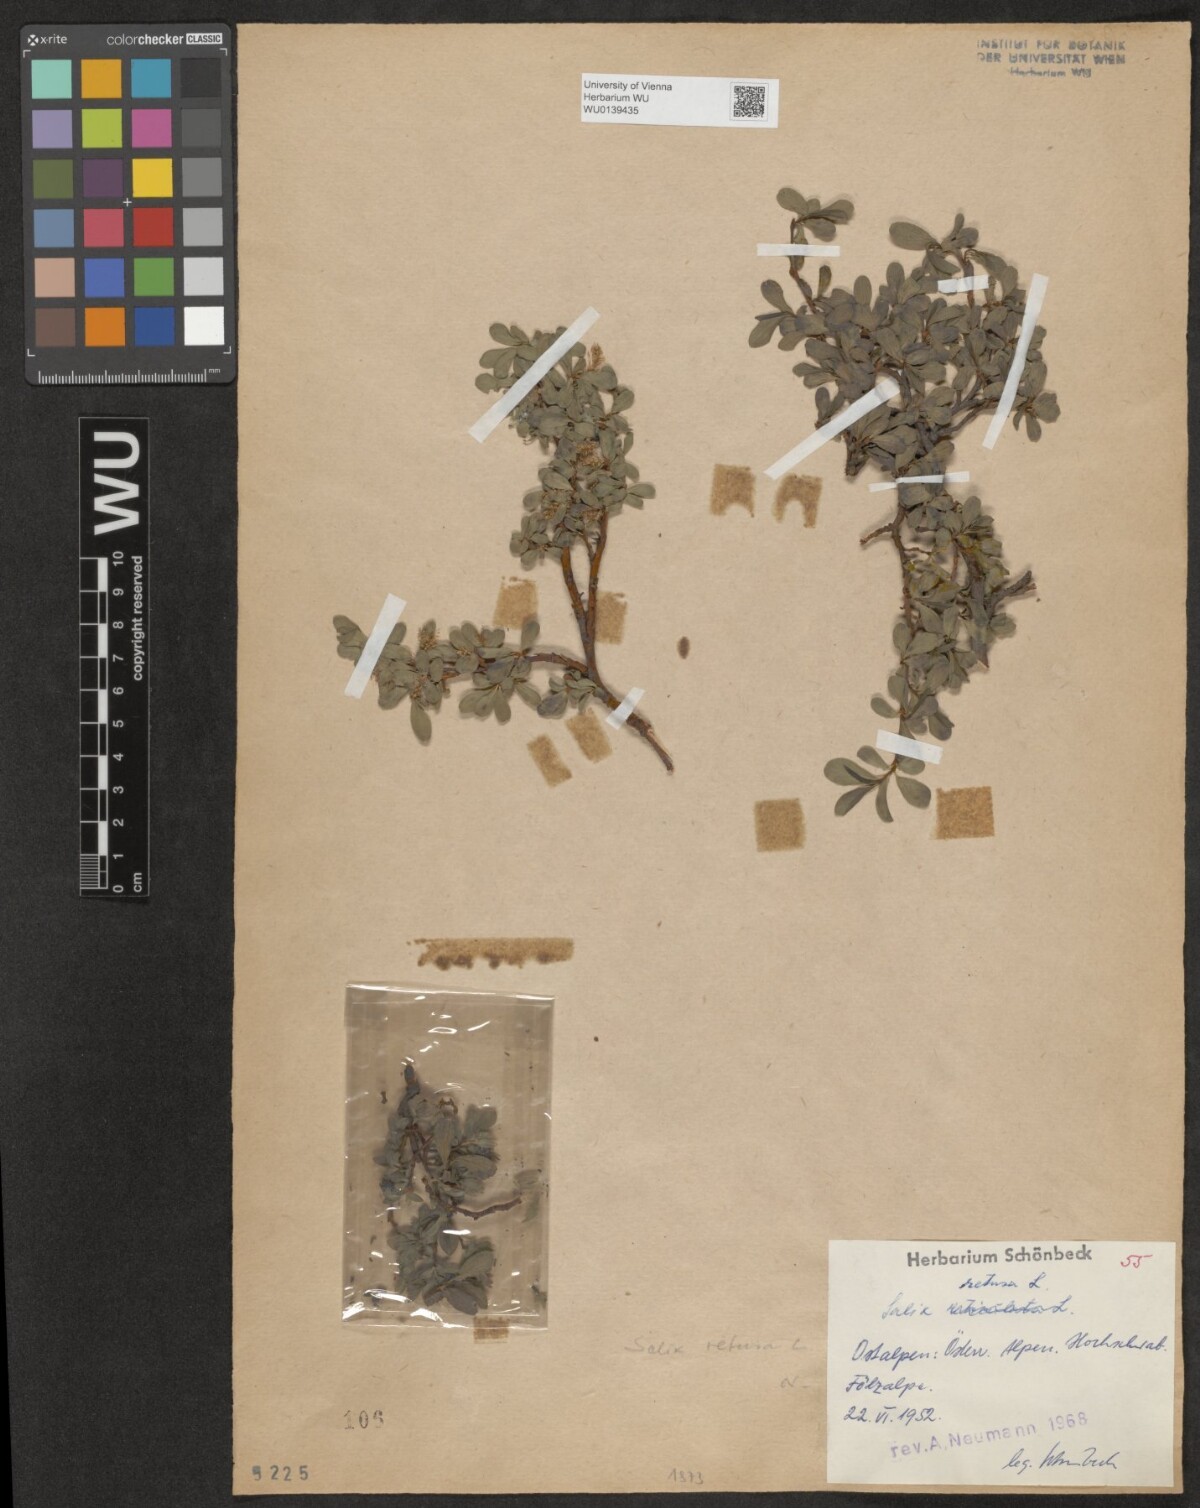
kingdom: Plantae
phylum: Tracheophyta
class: Magnoliopsida
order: Malpighiales
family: Salicaceae
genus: Salix
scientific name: Salix retusa
